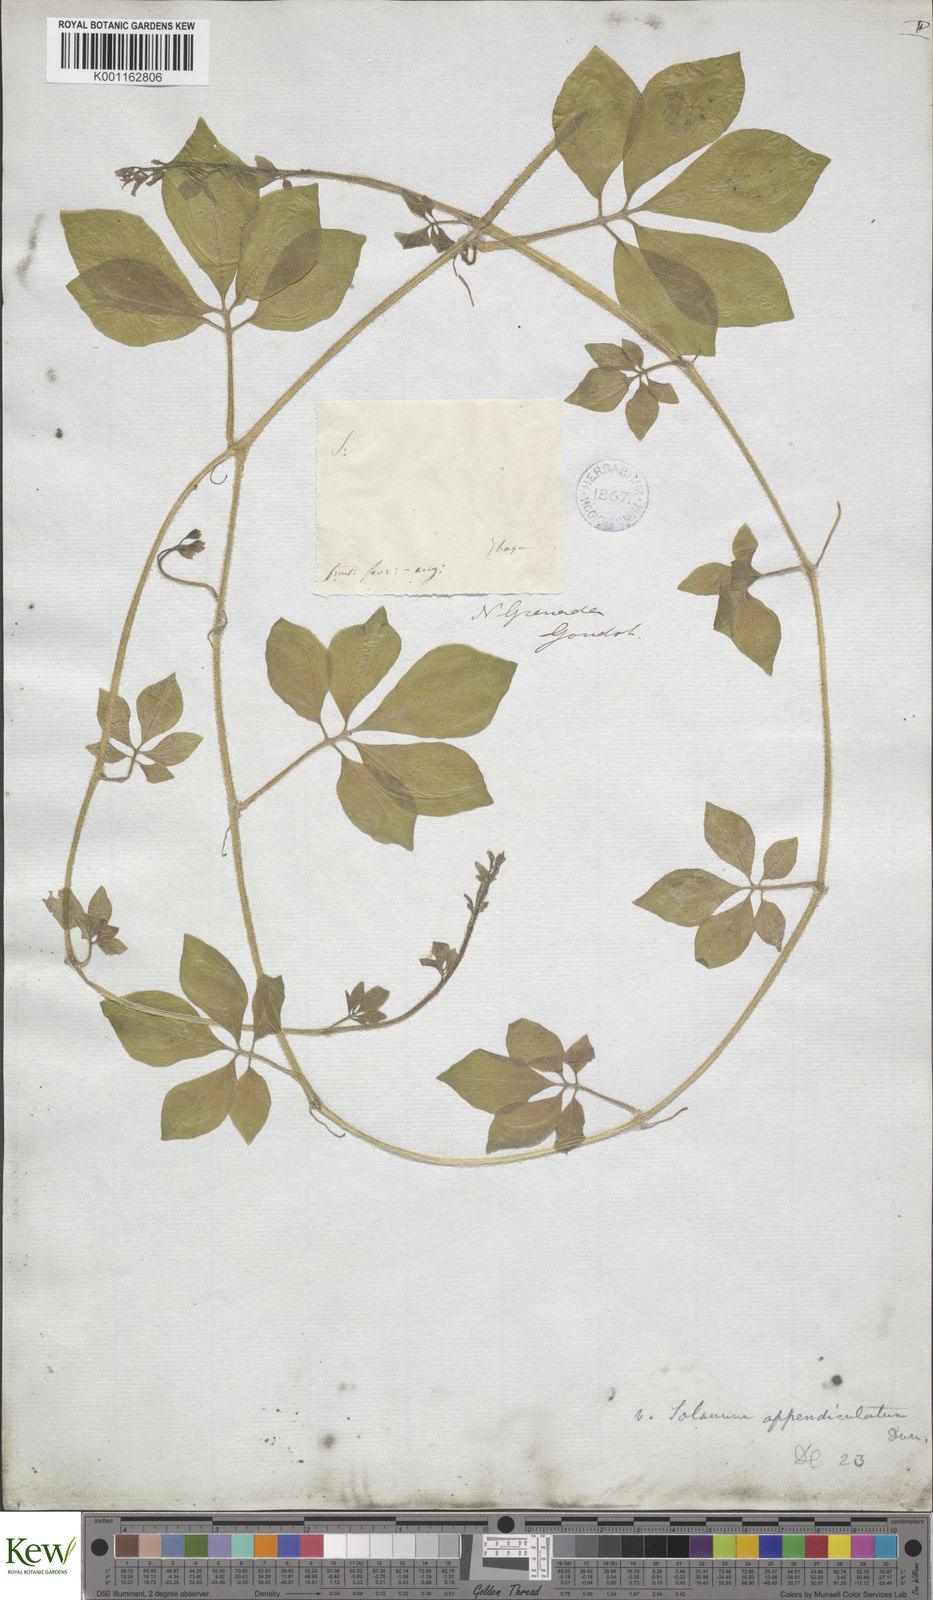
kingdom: Plantae
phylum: Tracheophyta
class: Magnoliopsida
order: Solanales
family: Solanaceae
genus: Solanum
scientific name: Solanum appendiculatum
